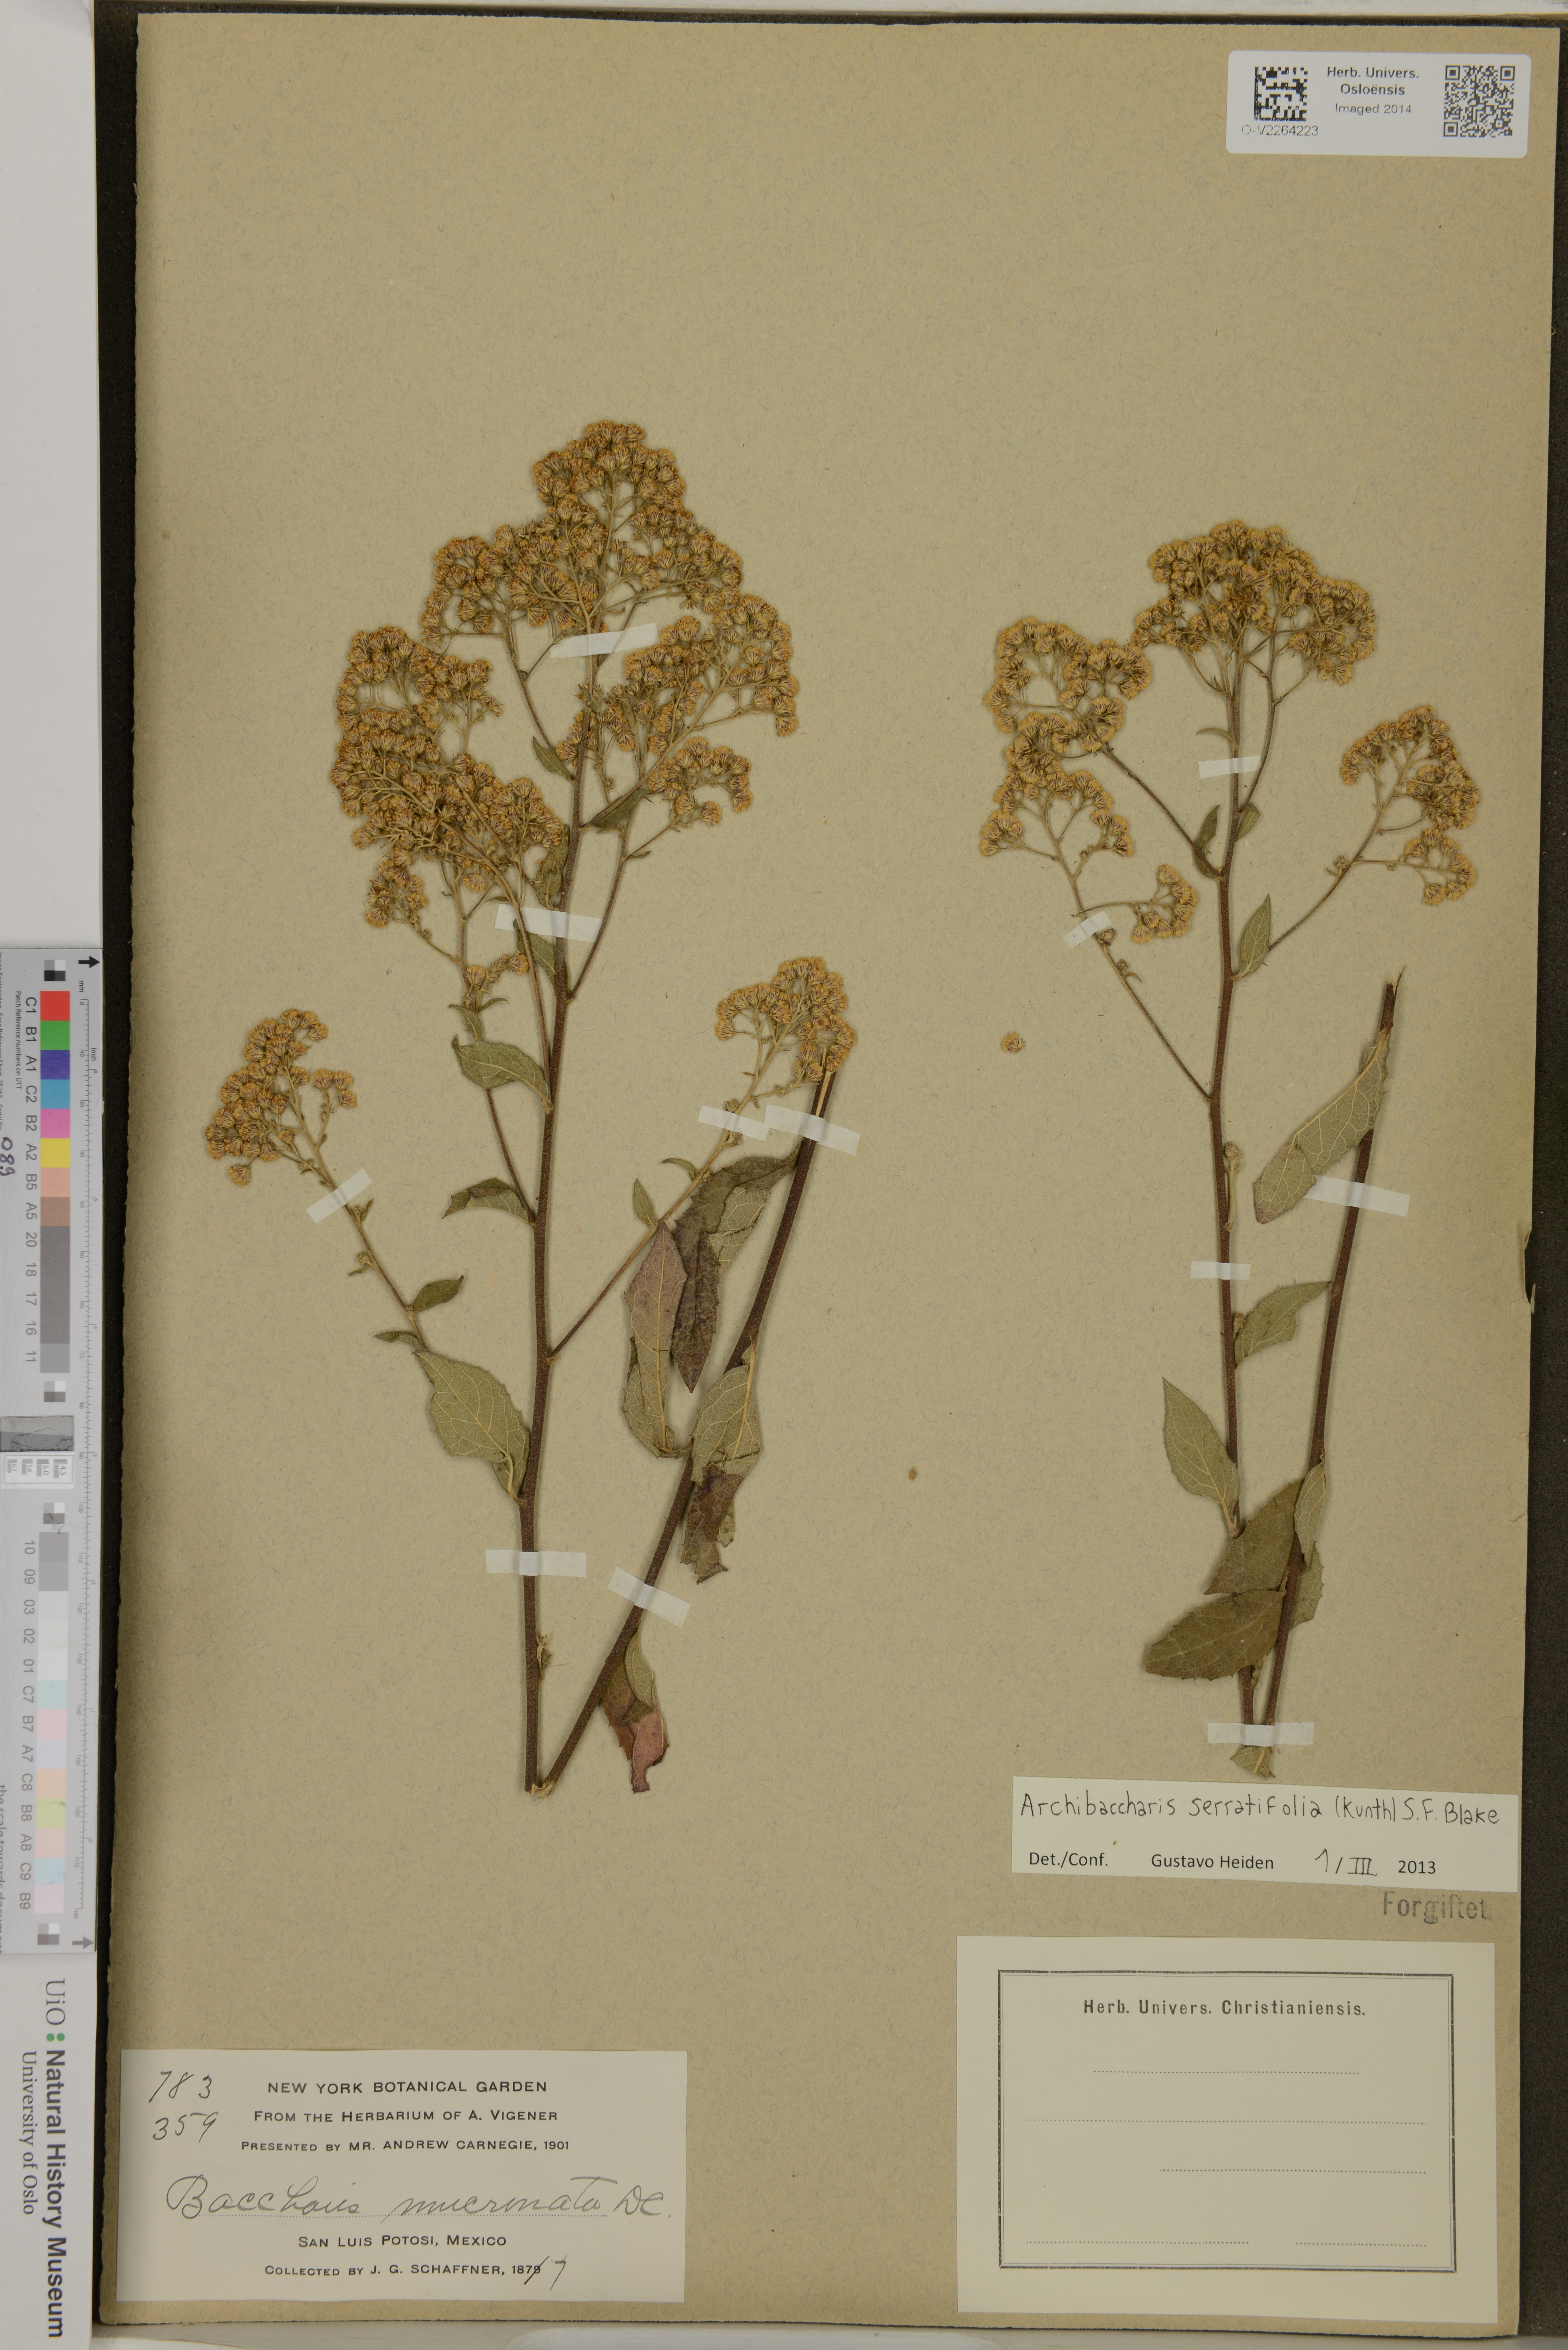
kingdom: Plantae
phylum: Tracheophyta
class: Magnoliopsida
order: Asterales
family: Asteraceae
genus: Archibaccharis
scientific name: Archibaccharis serratifolia
